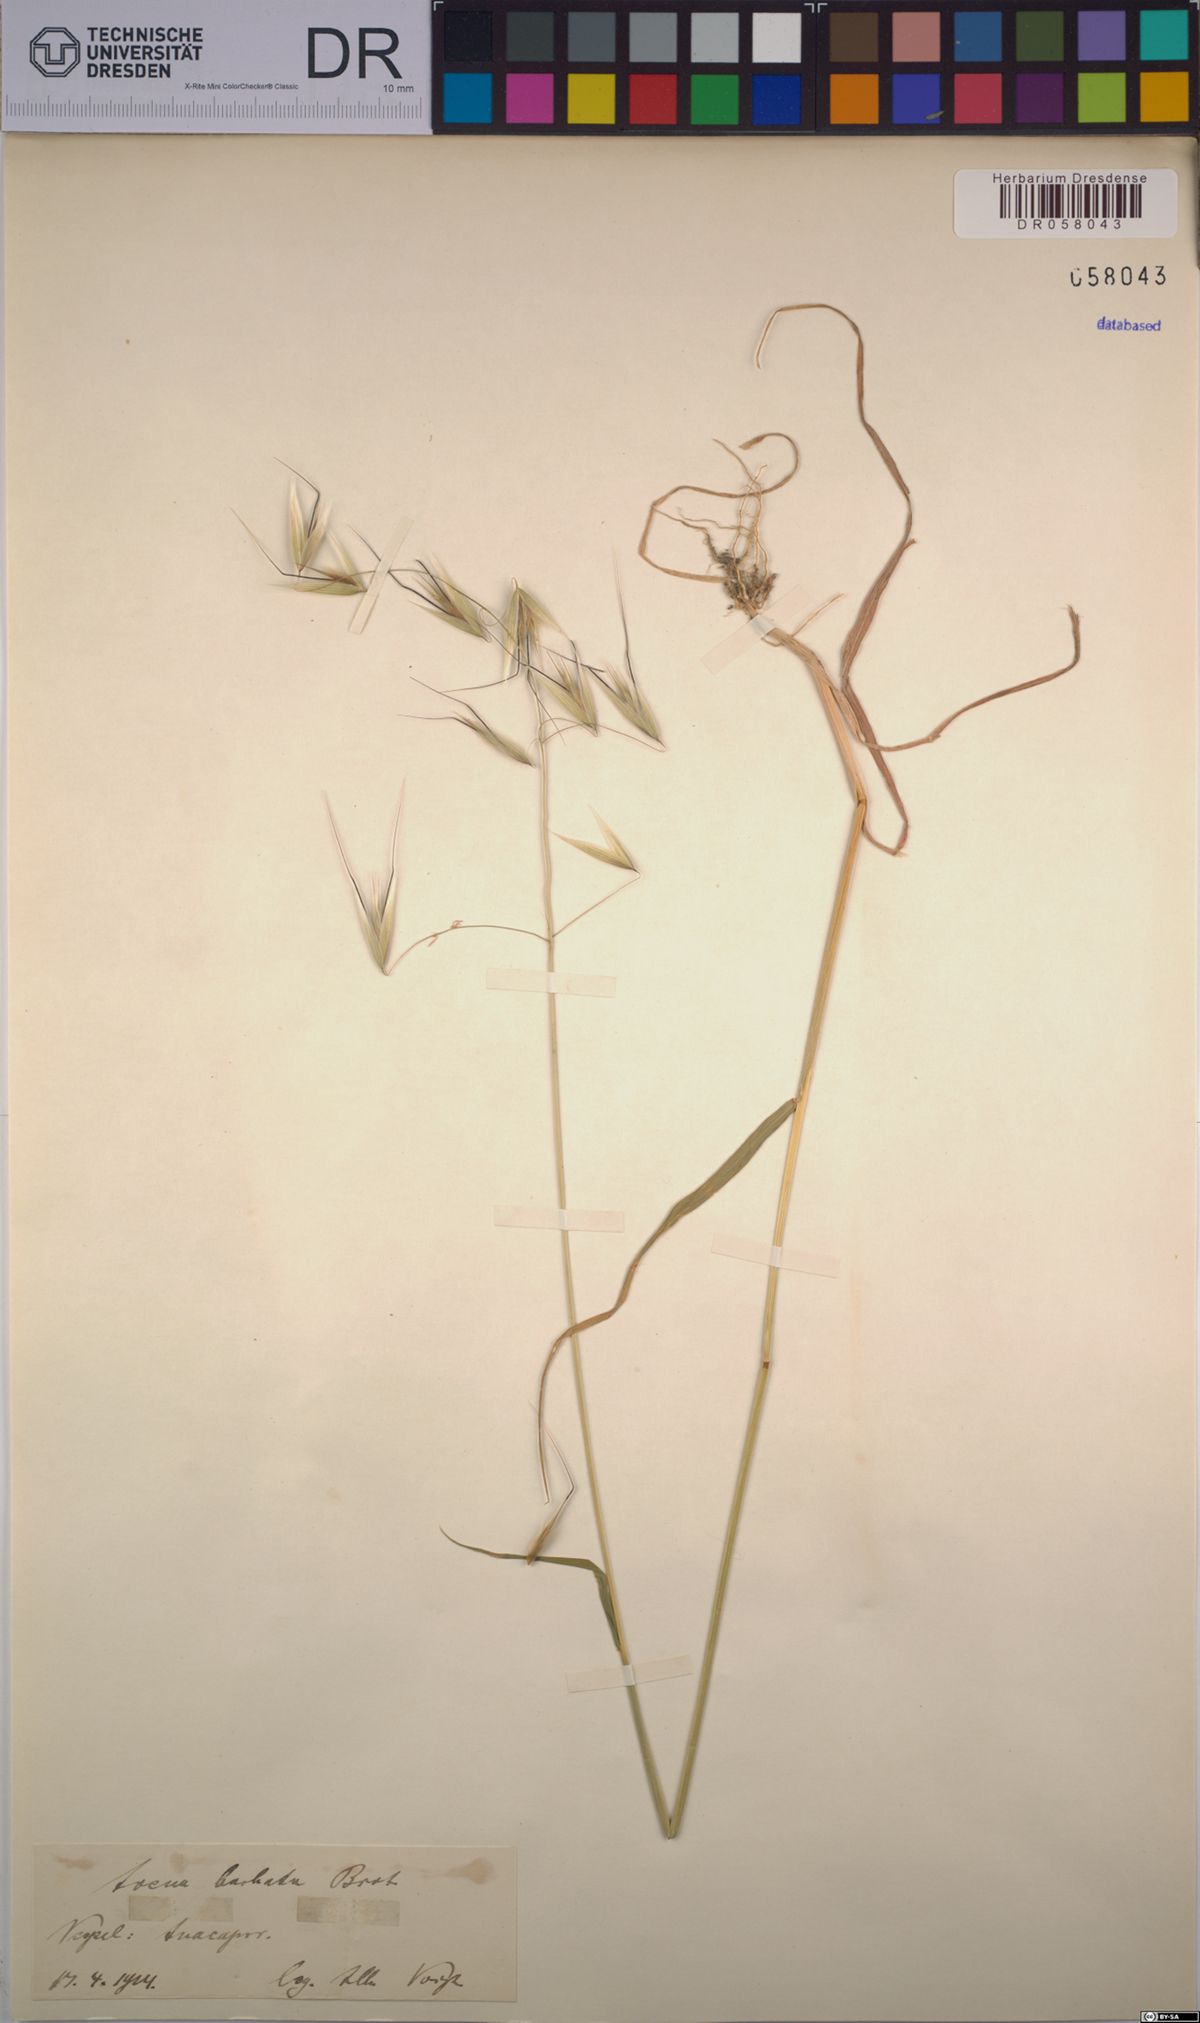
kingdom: Plantae
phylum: Tracheophyta
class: Liliopsida
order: Poales
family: Poaceae
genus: Avena
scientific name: Avena barbata
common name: Slender oat
